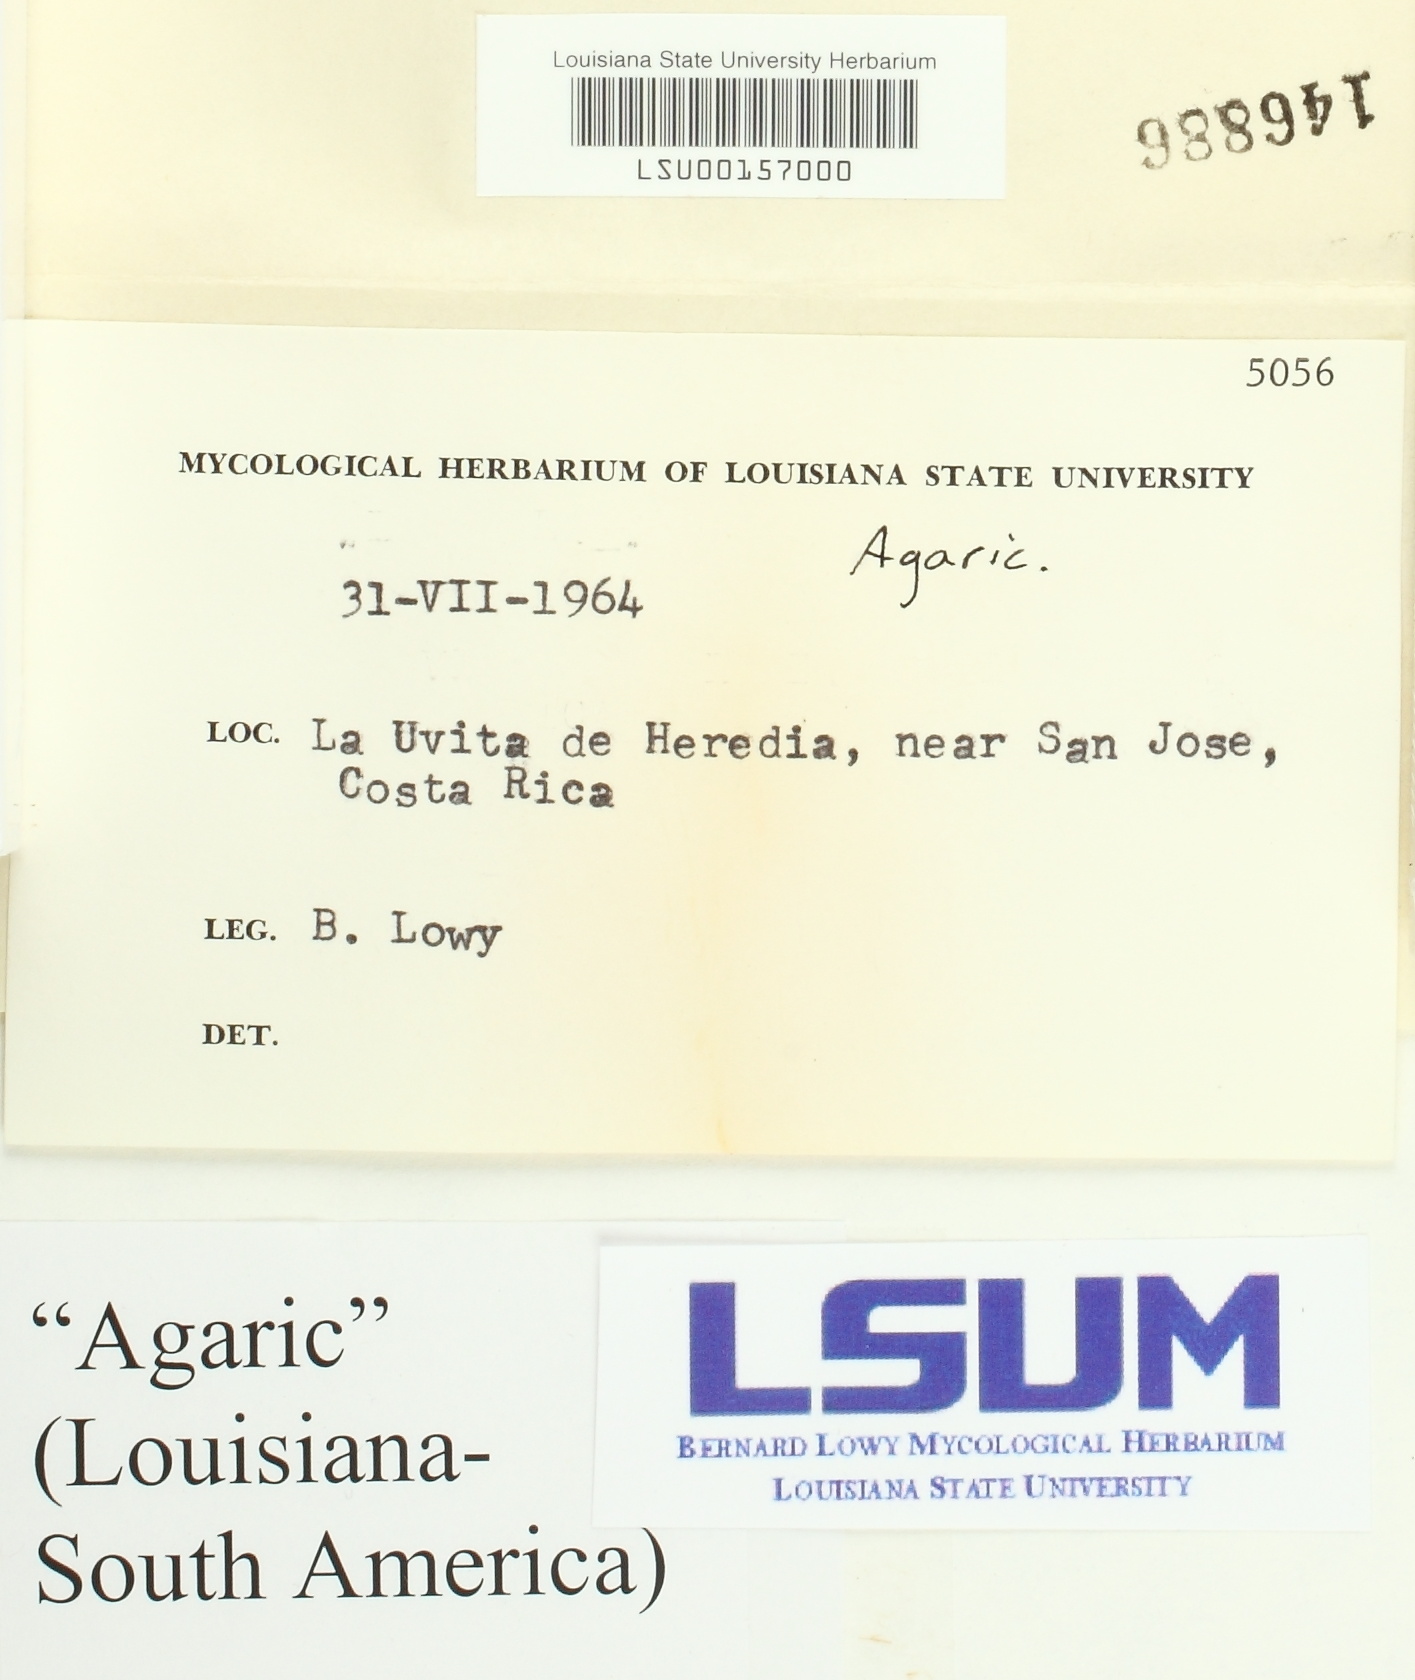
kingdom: Fungi
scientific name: Fungi
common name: Fungi
